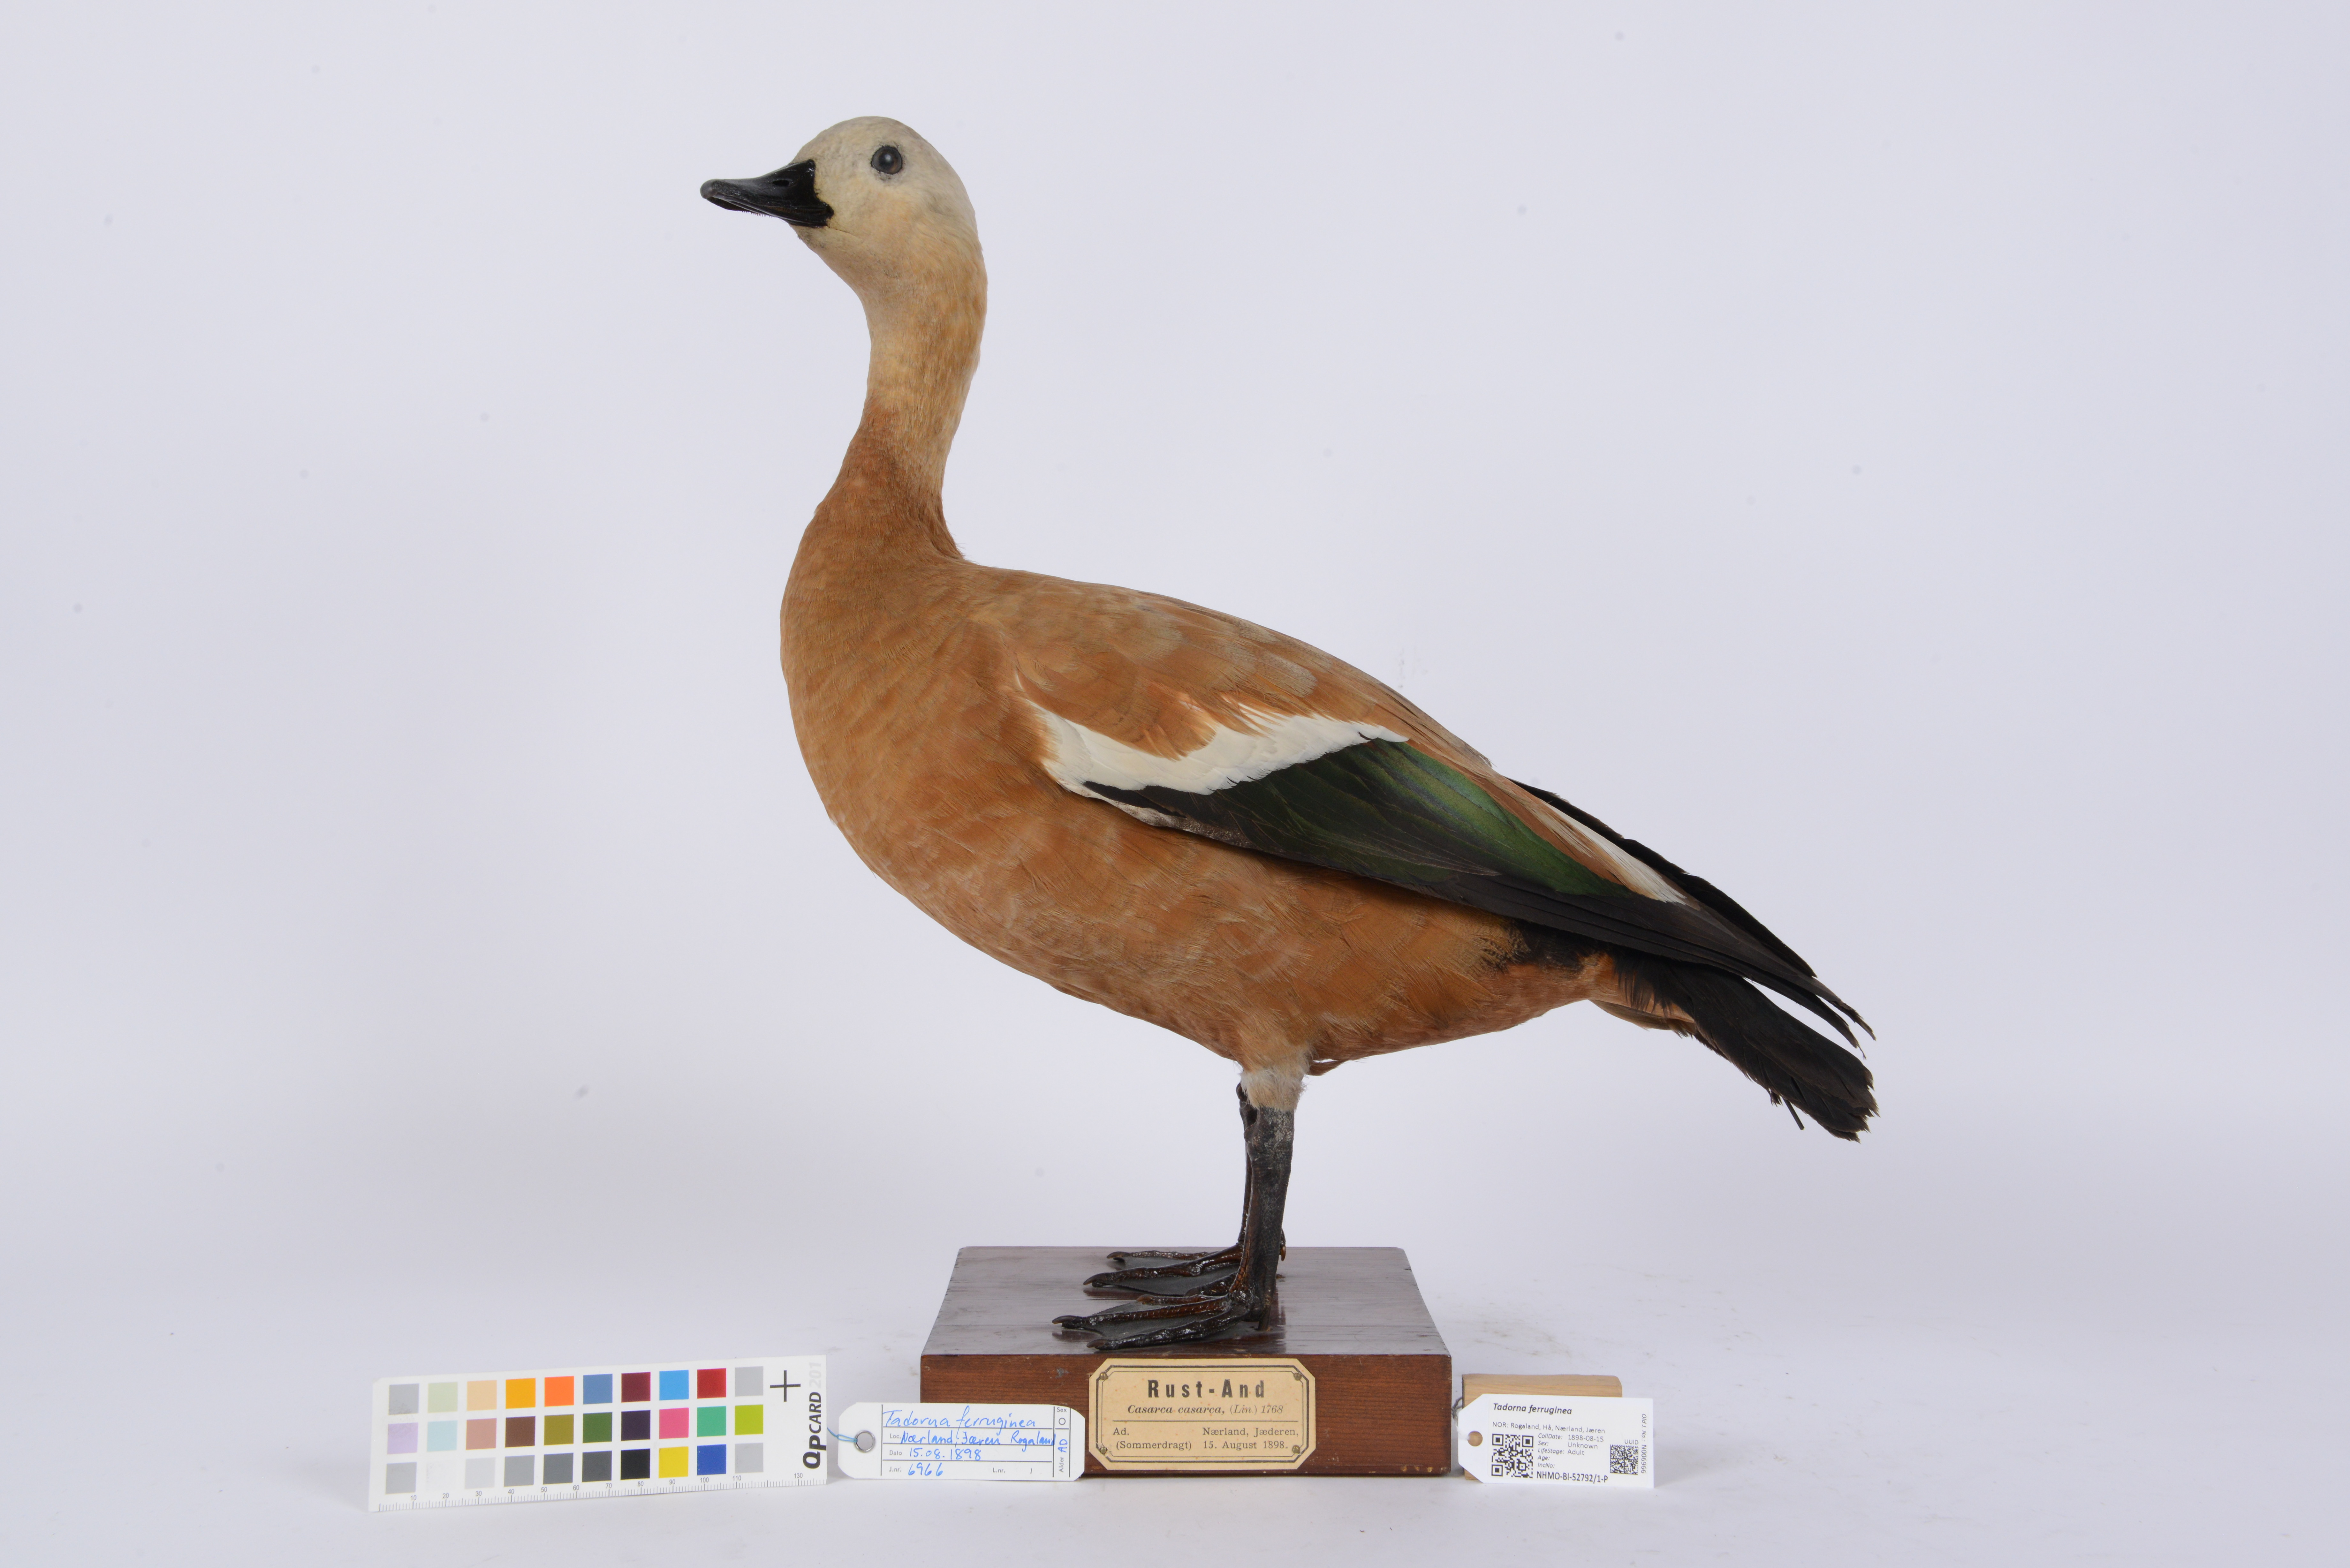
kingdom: Animalia
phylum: Chordata
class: Aves
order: Anseriformes
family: Anatidae
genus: Tadorna
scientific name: Tadorna ferruginea
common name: Ruddy shelduck
